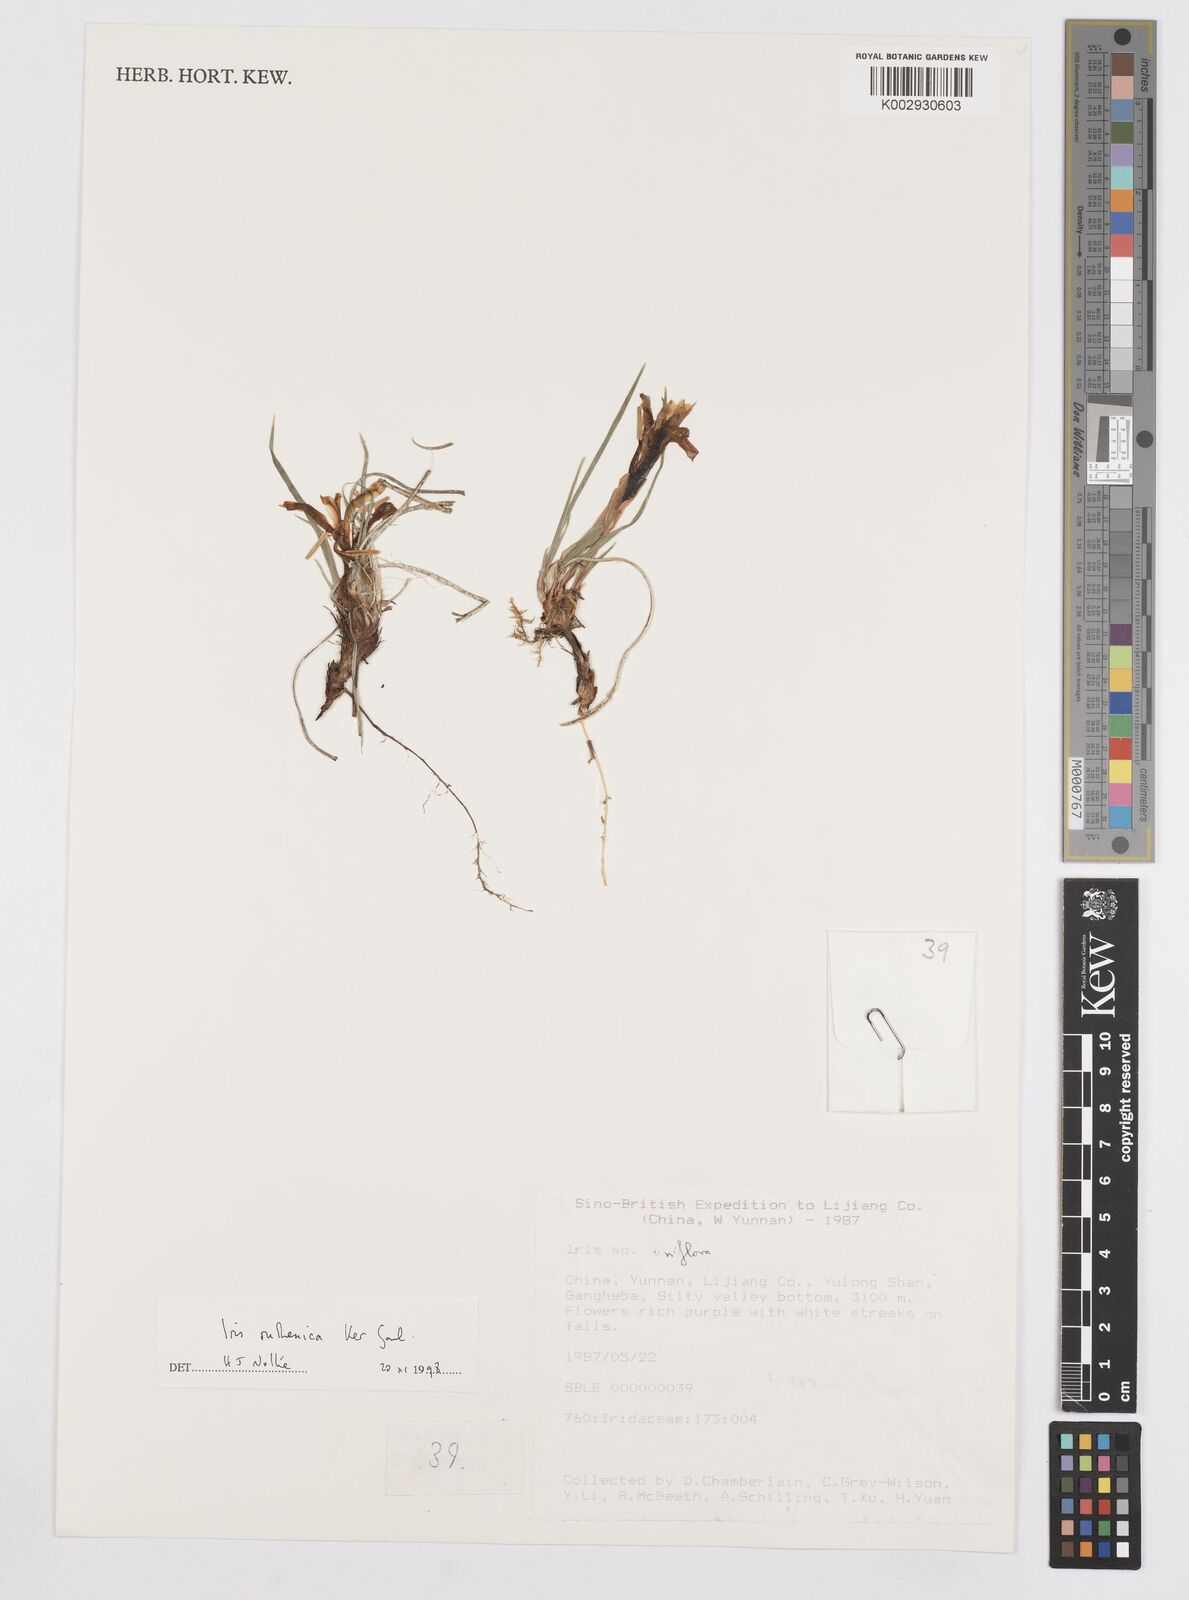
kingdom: Plantae
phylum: Tracheophyta
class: Liliopsida
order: Asparagales
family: Iridaceae
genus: Iris
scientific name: Iris ruthenica
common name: Purple-bract iris
